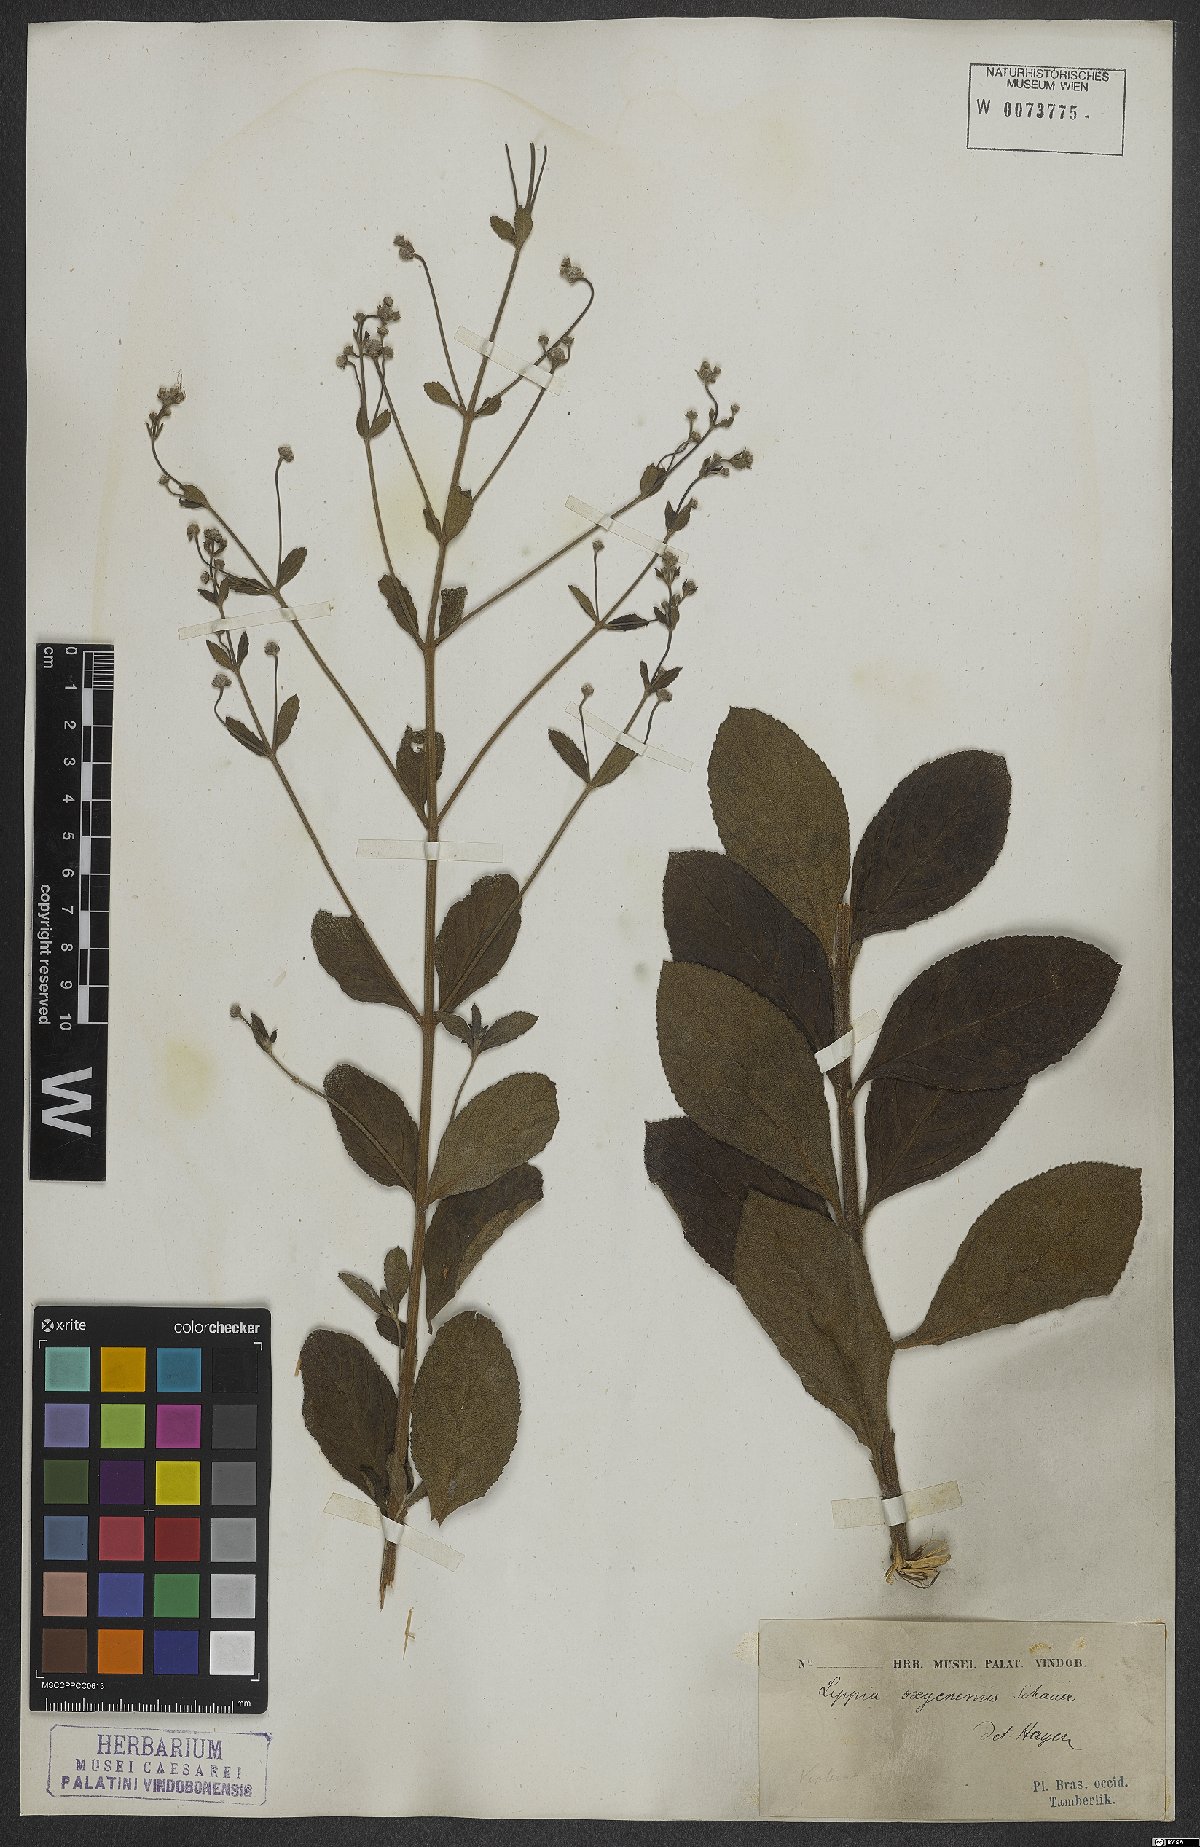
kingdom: Plantae
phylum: Tracheophyta
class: Magnoliopsida
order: Lamiales
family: Verbenaceae
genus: Lippia
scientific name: Lippia oxycnemis
